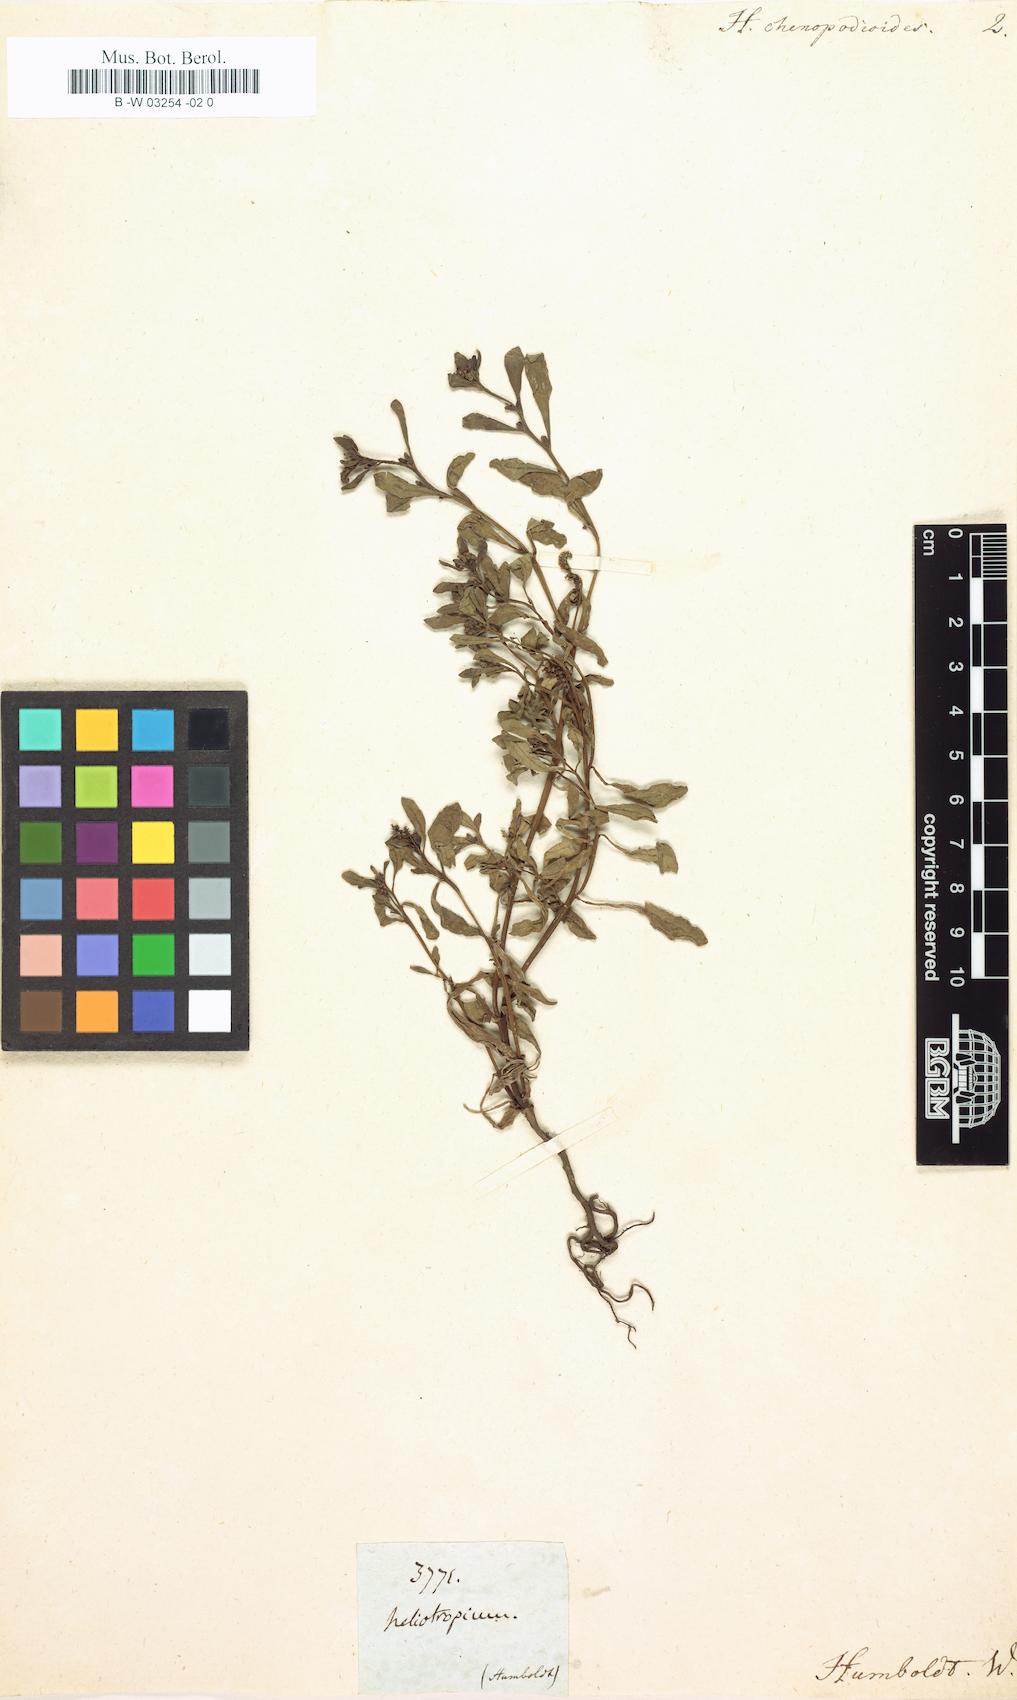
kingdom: Plantae
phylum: Tracheophyta
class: Magnoliopsida
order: Boraginales
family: Heliotropiaceae
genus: Heliotropium
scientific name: Heliotropium curassavicum
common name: Seaside heliotrope
